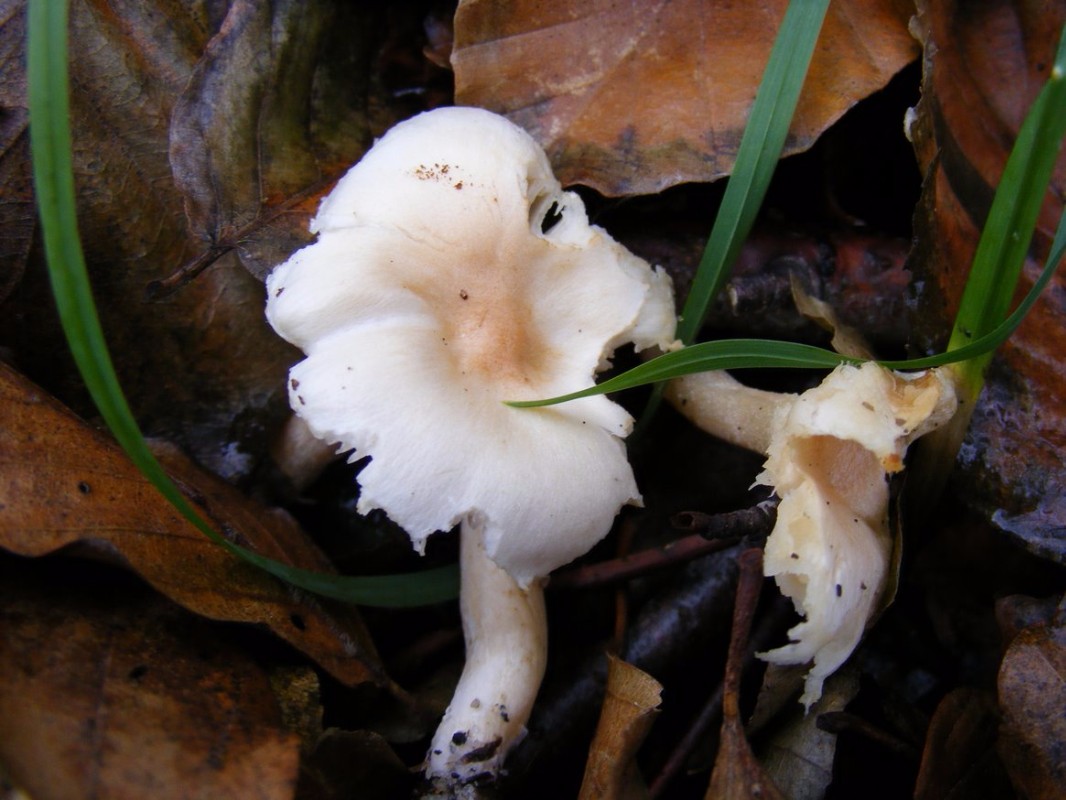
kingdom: Fungi
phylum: Basidiomycota
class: Agaricomycetes
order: Agaricales
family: Hygrophoraceae
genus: Hygrophorus
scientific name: Hygrophorus unicolor
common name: orangeøjet sneglehat
